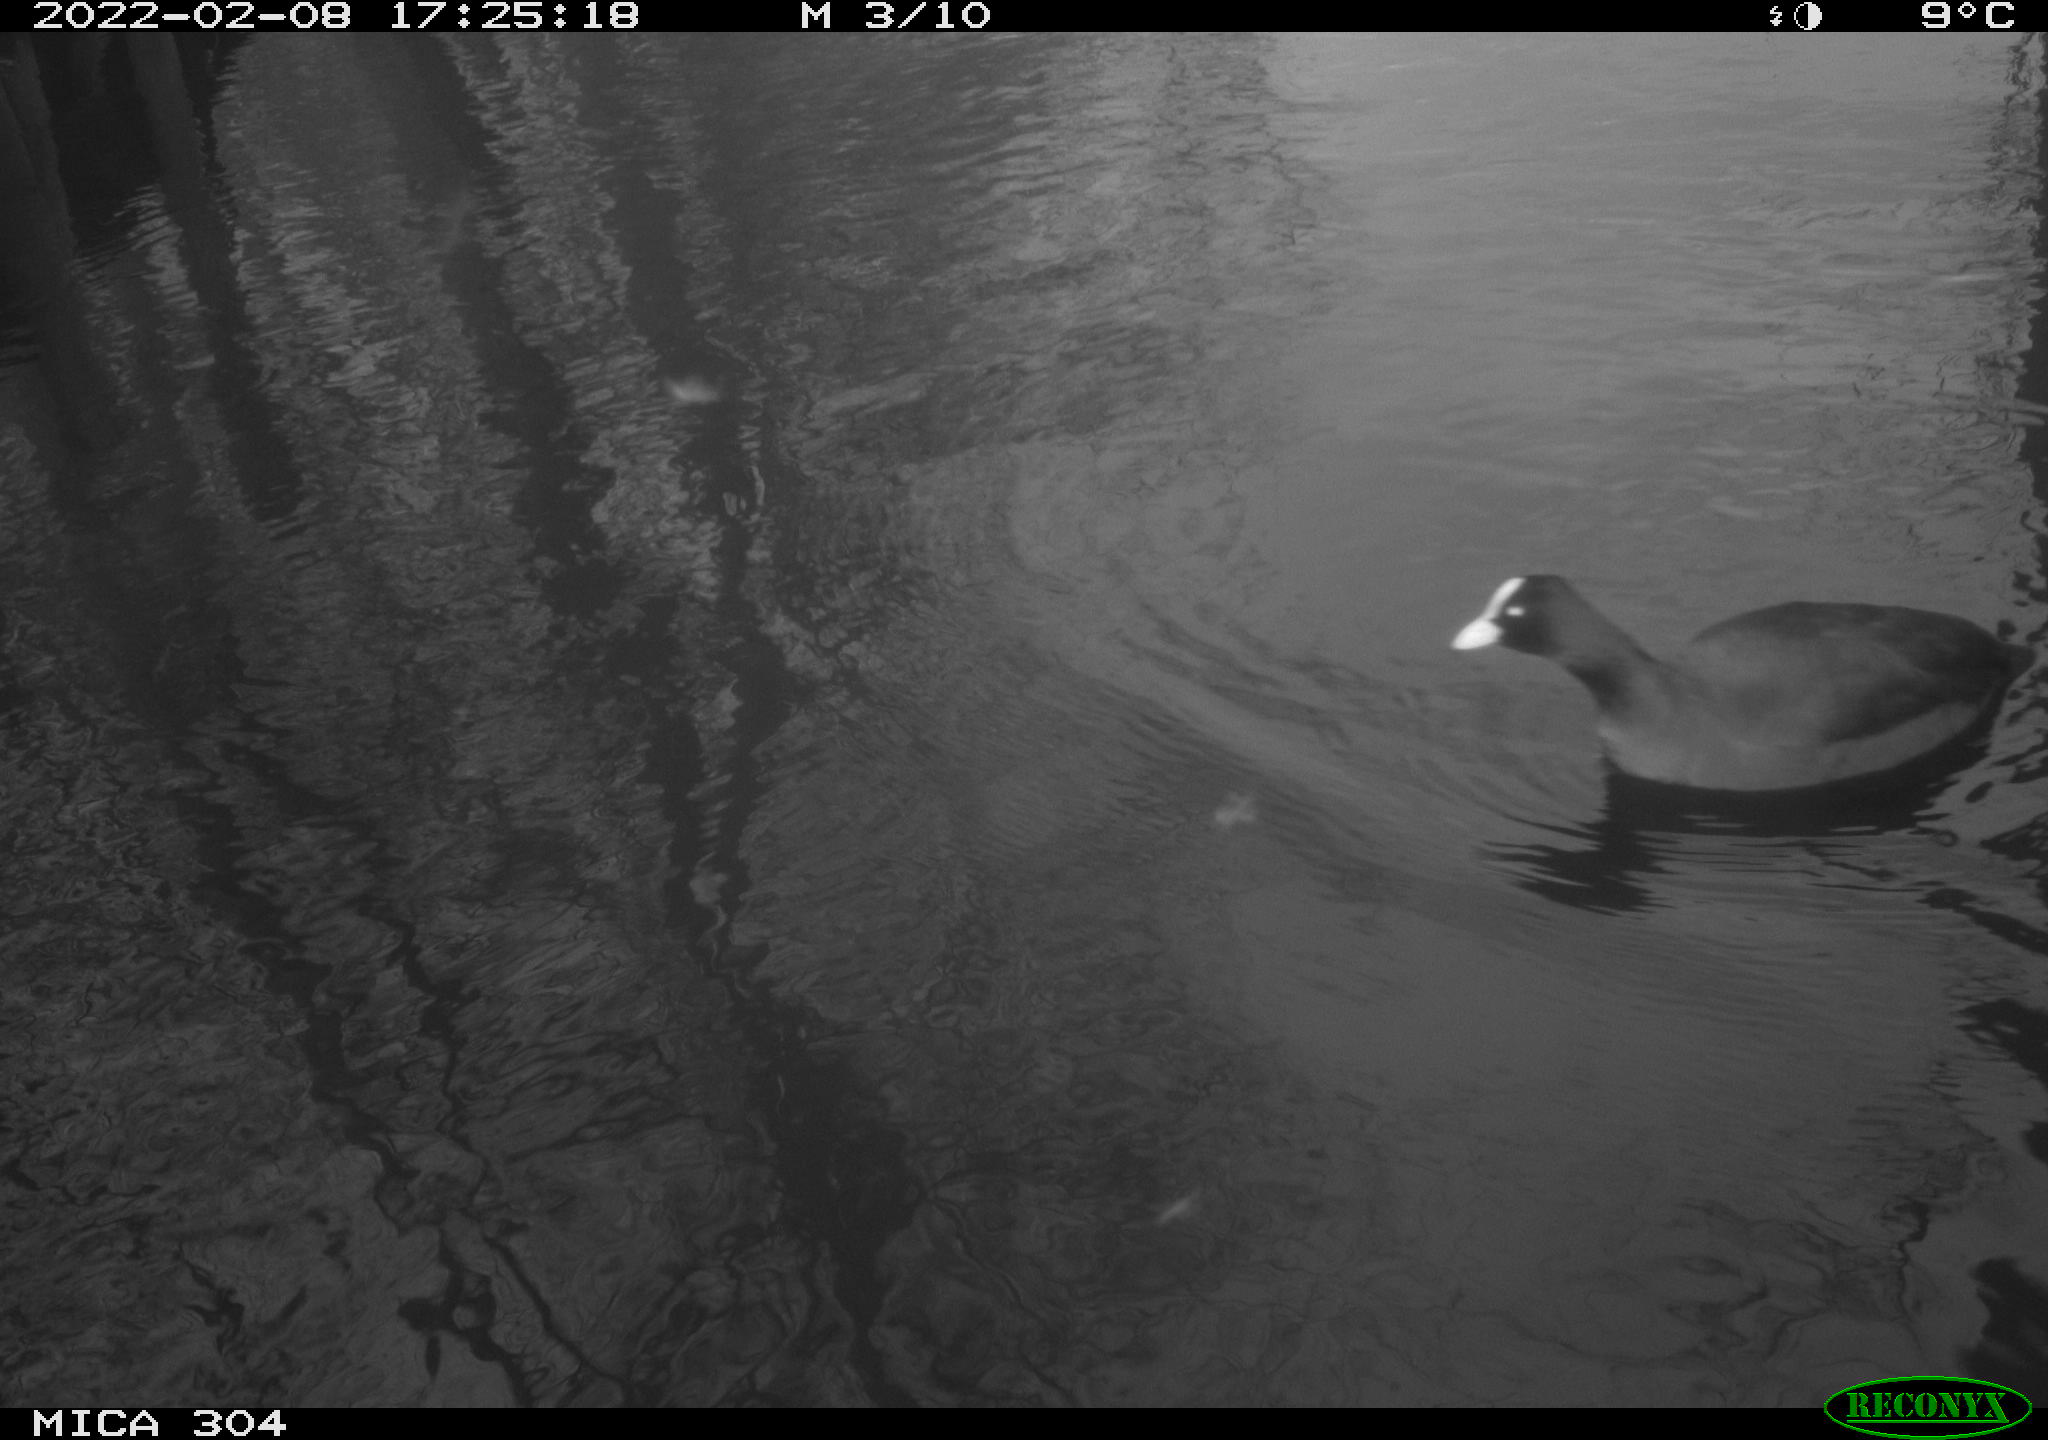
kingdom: Animalia
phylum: Chordata
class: Aves
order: Gruiformes
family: Rallidae
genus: Fulica
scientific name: Fulica atra
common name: Eurasian coot
